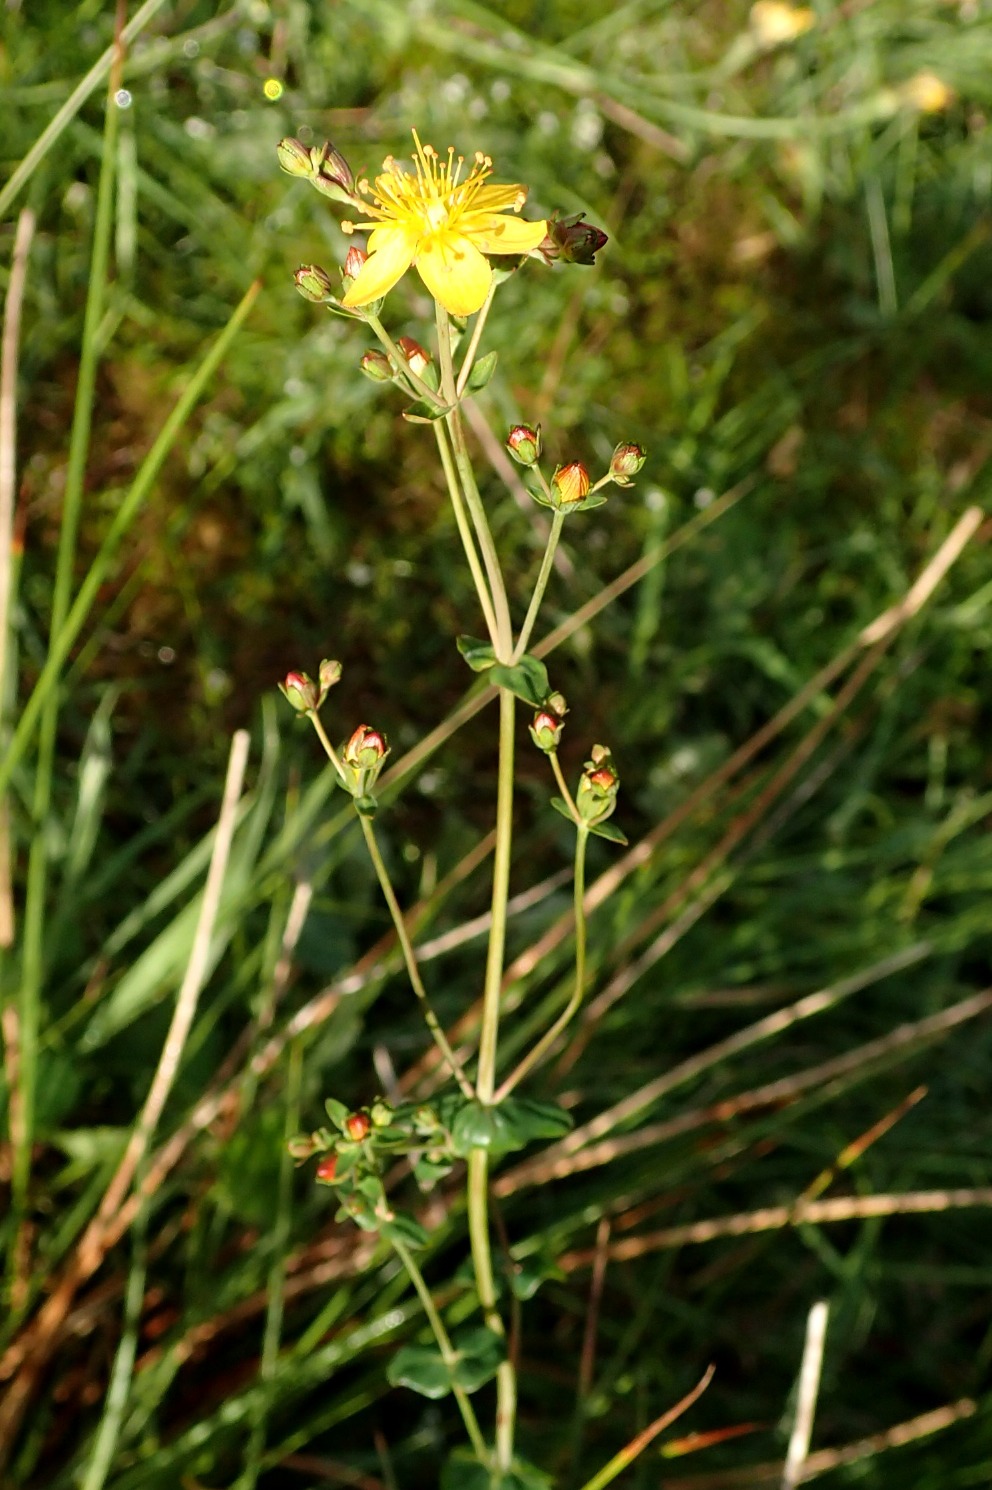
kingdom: Plantae
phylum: Tracheophyta
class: Magnoliopsida
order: Malpighiales
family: Hypericaceae
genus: Hypericum
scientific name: Hypericum pulchrum
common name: Smuk perikon
